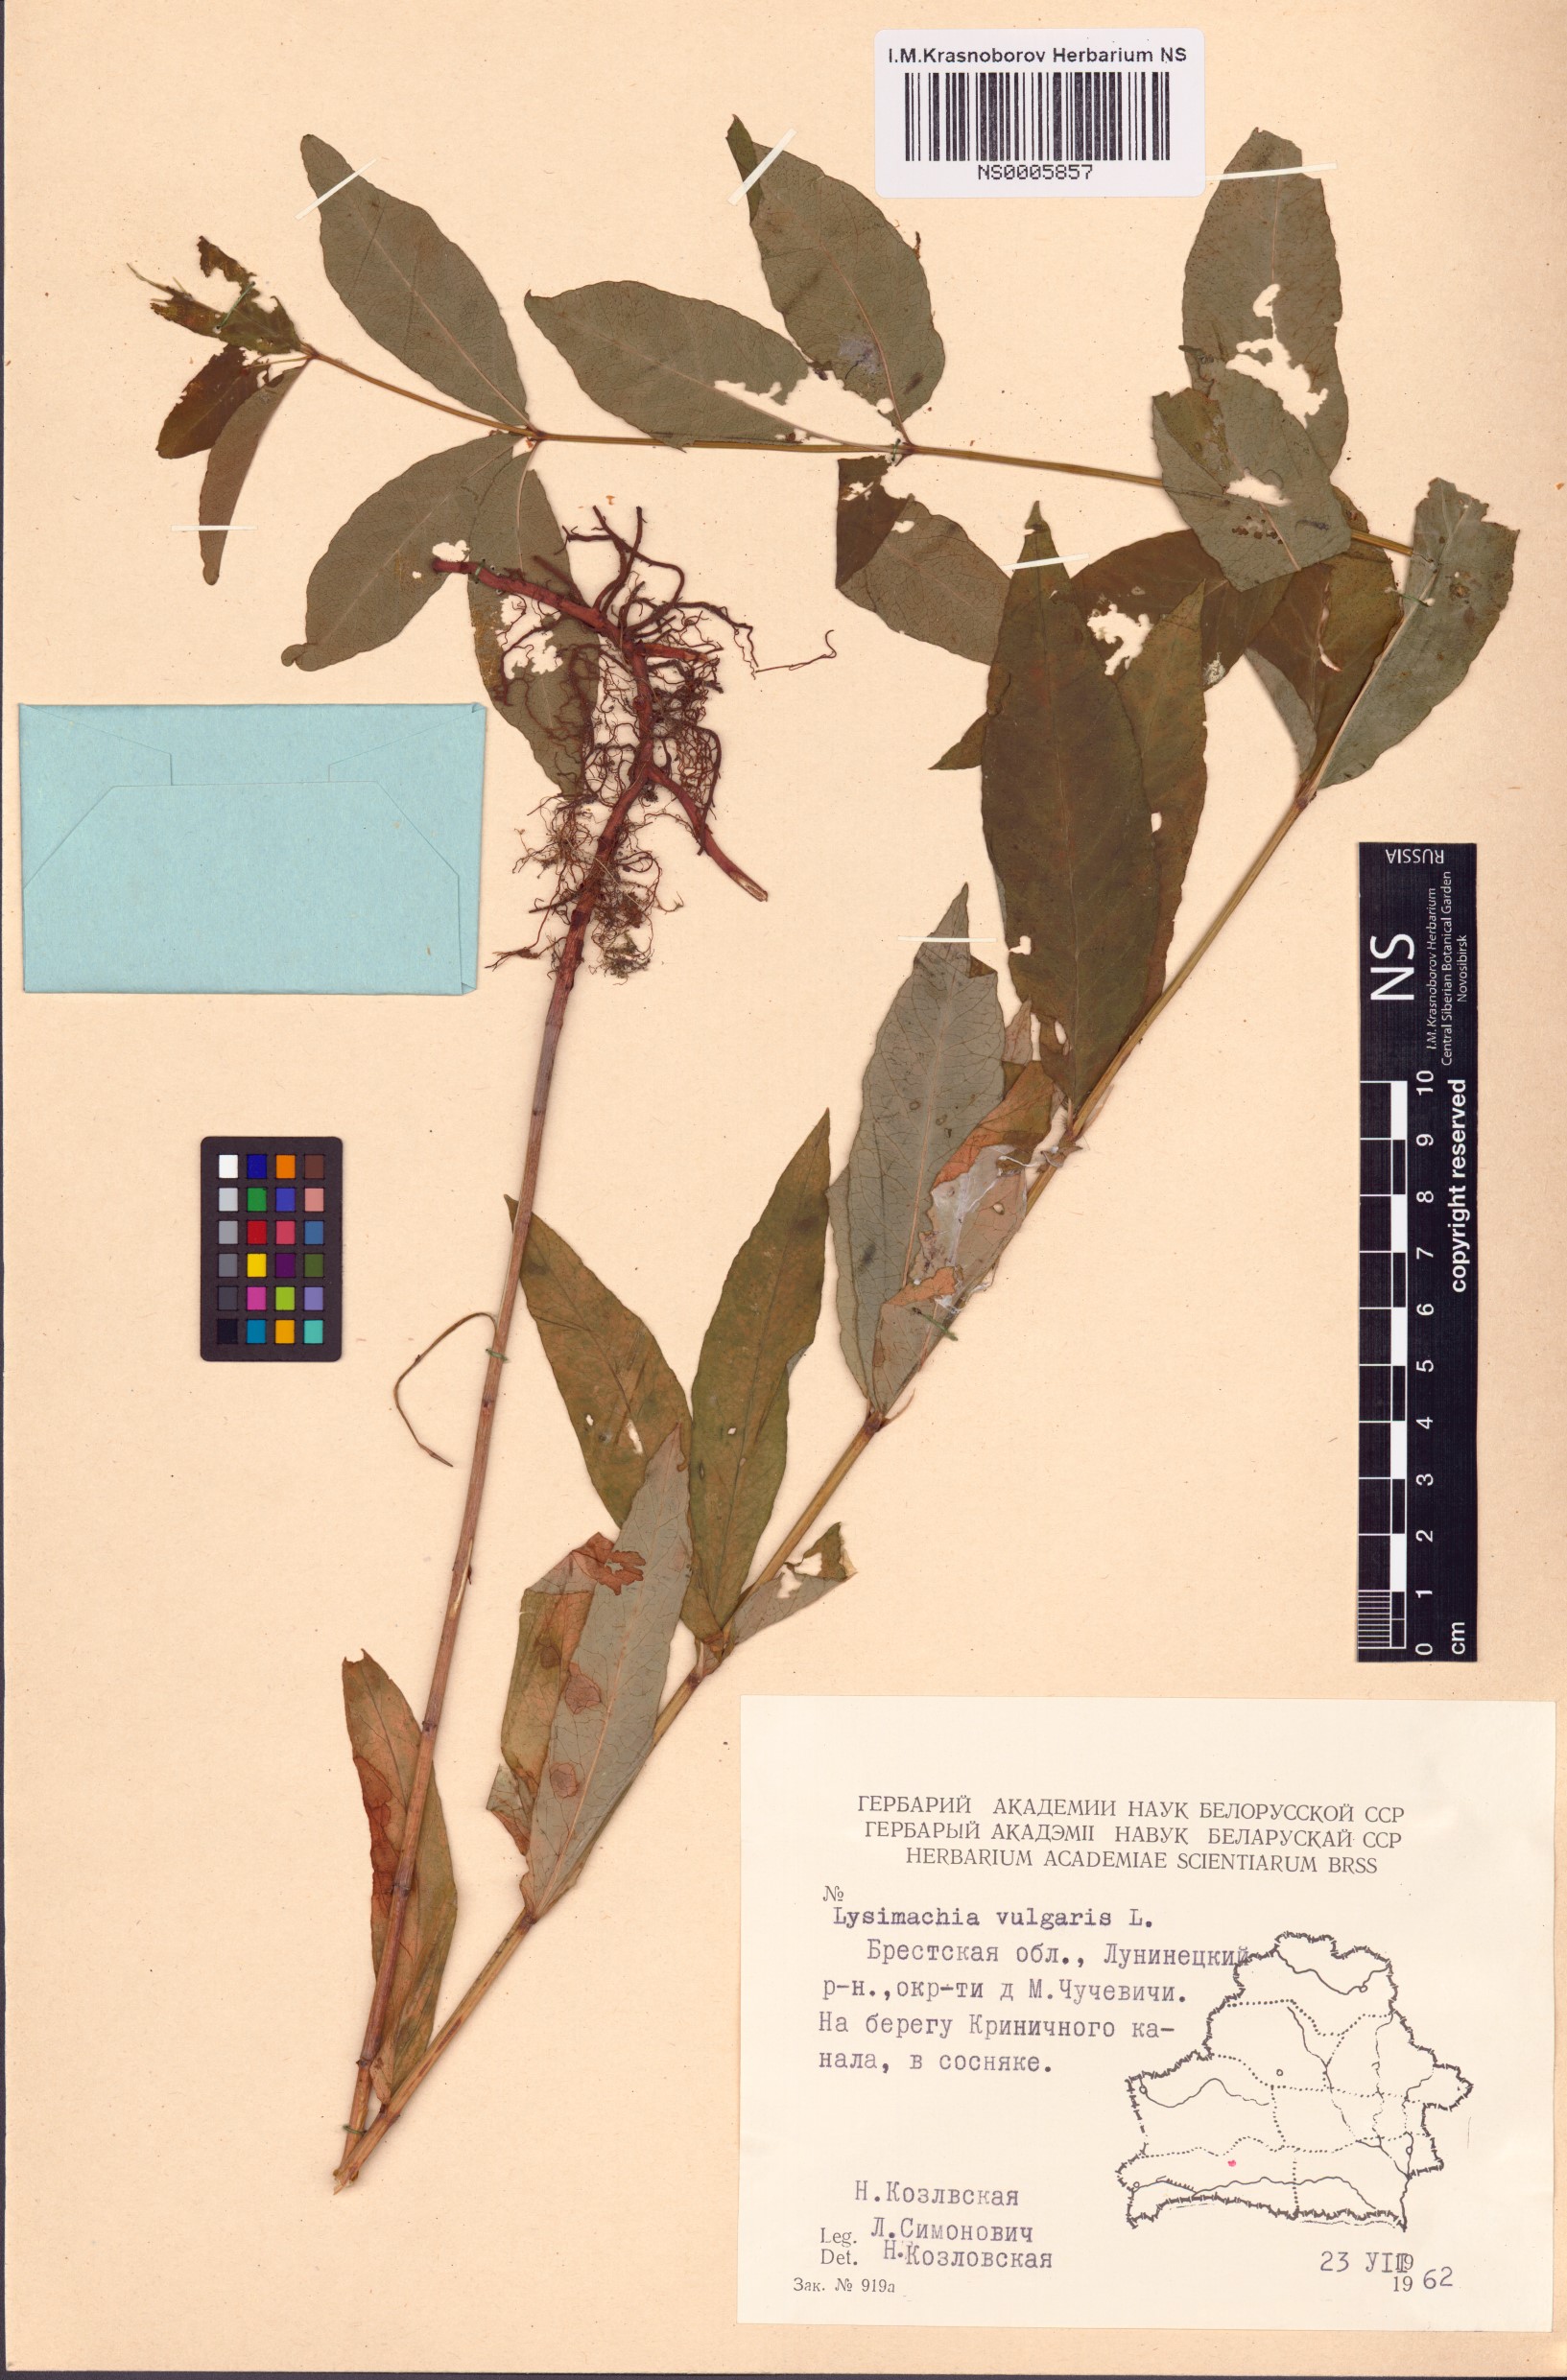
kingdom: Plantae
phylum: Tracheophyta
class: Magnoliopsida
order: Ericales
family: Primulaceae
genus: Lysimachia
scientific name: Lysimachia vulgaris
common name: Yellow loosestrife
